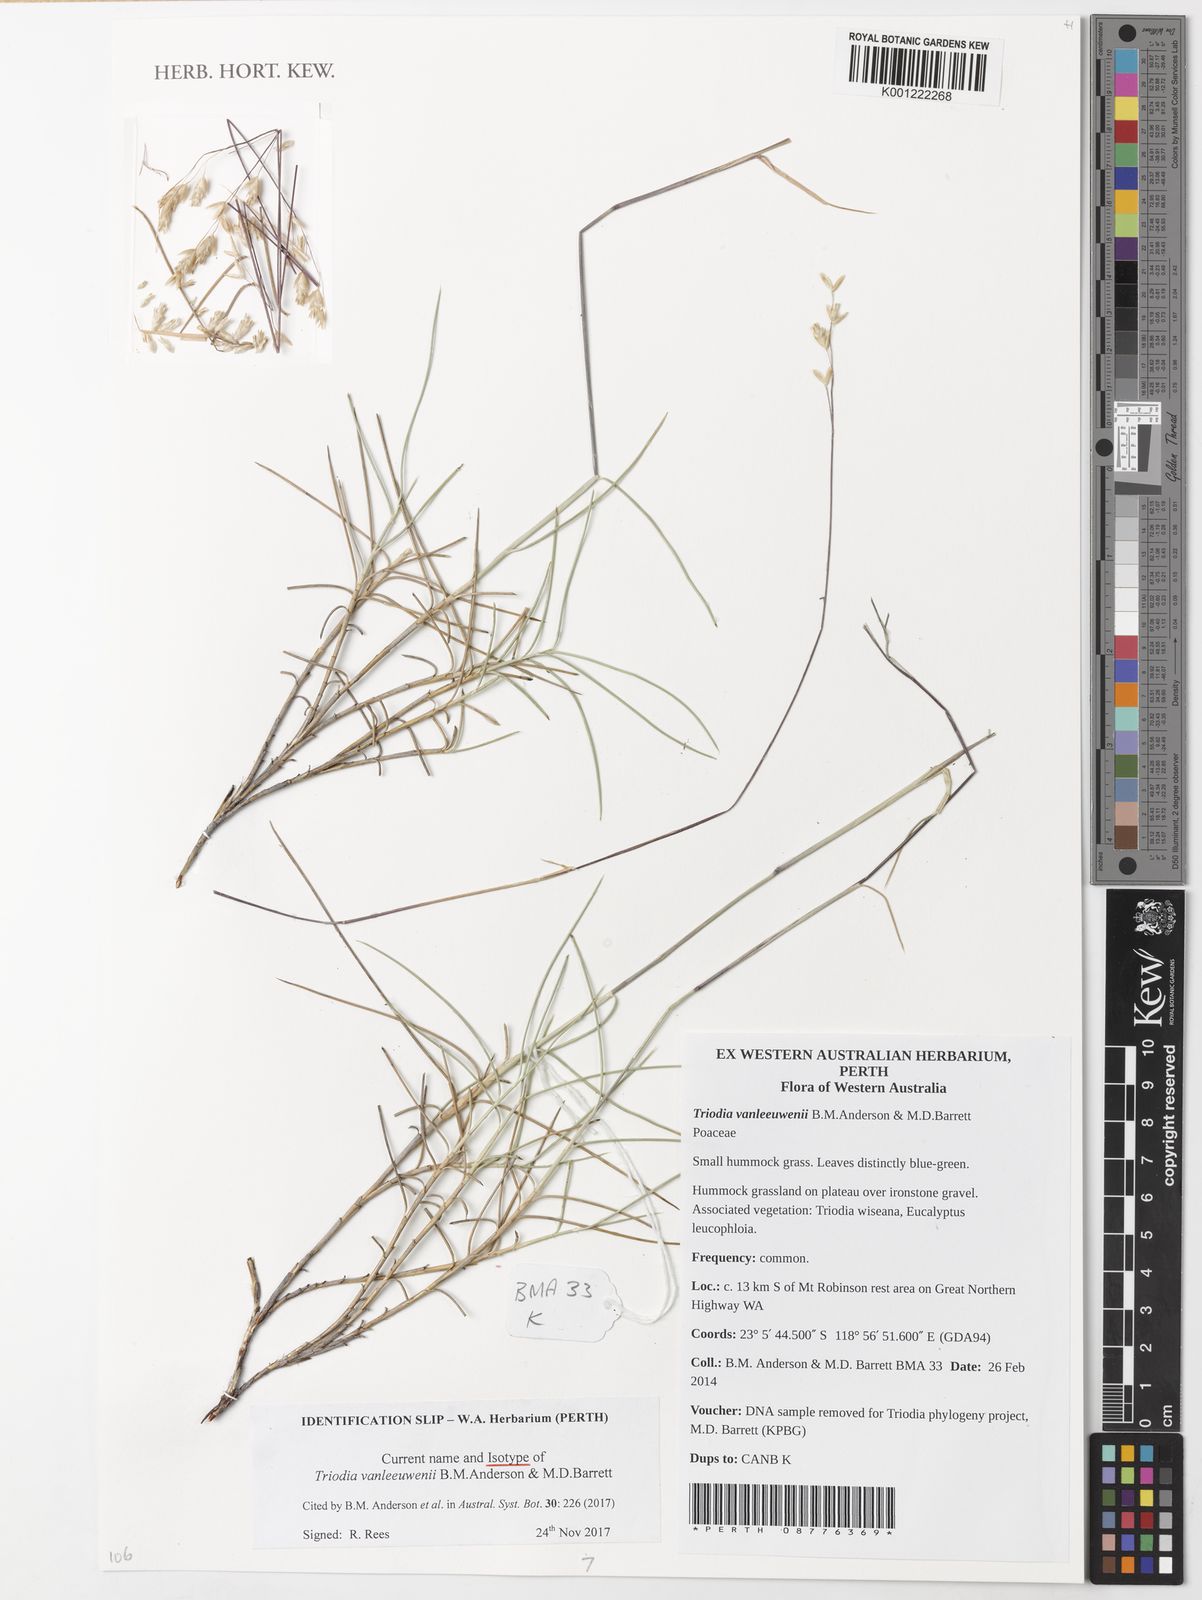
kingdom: Plantae
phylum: Tracheophyta
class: Liliopsida
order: Poales
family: Poaceae
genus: Triodia
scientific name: Triodia vanleeuwenii
